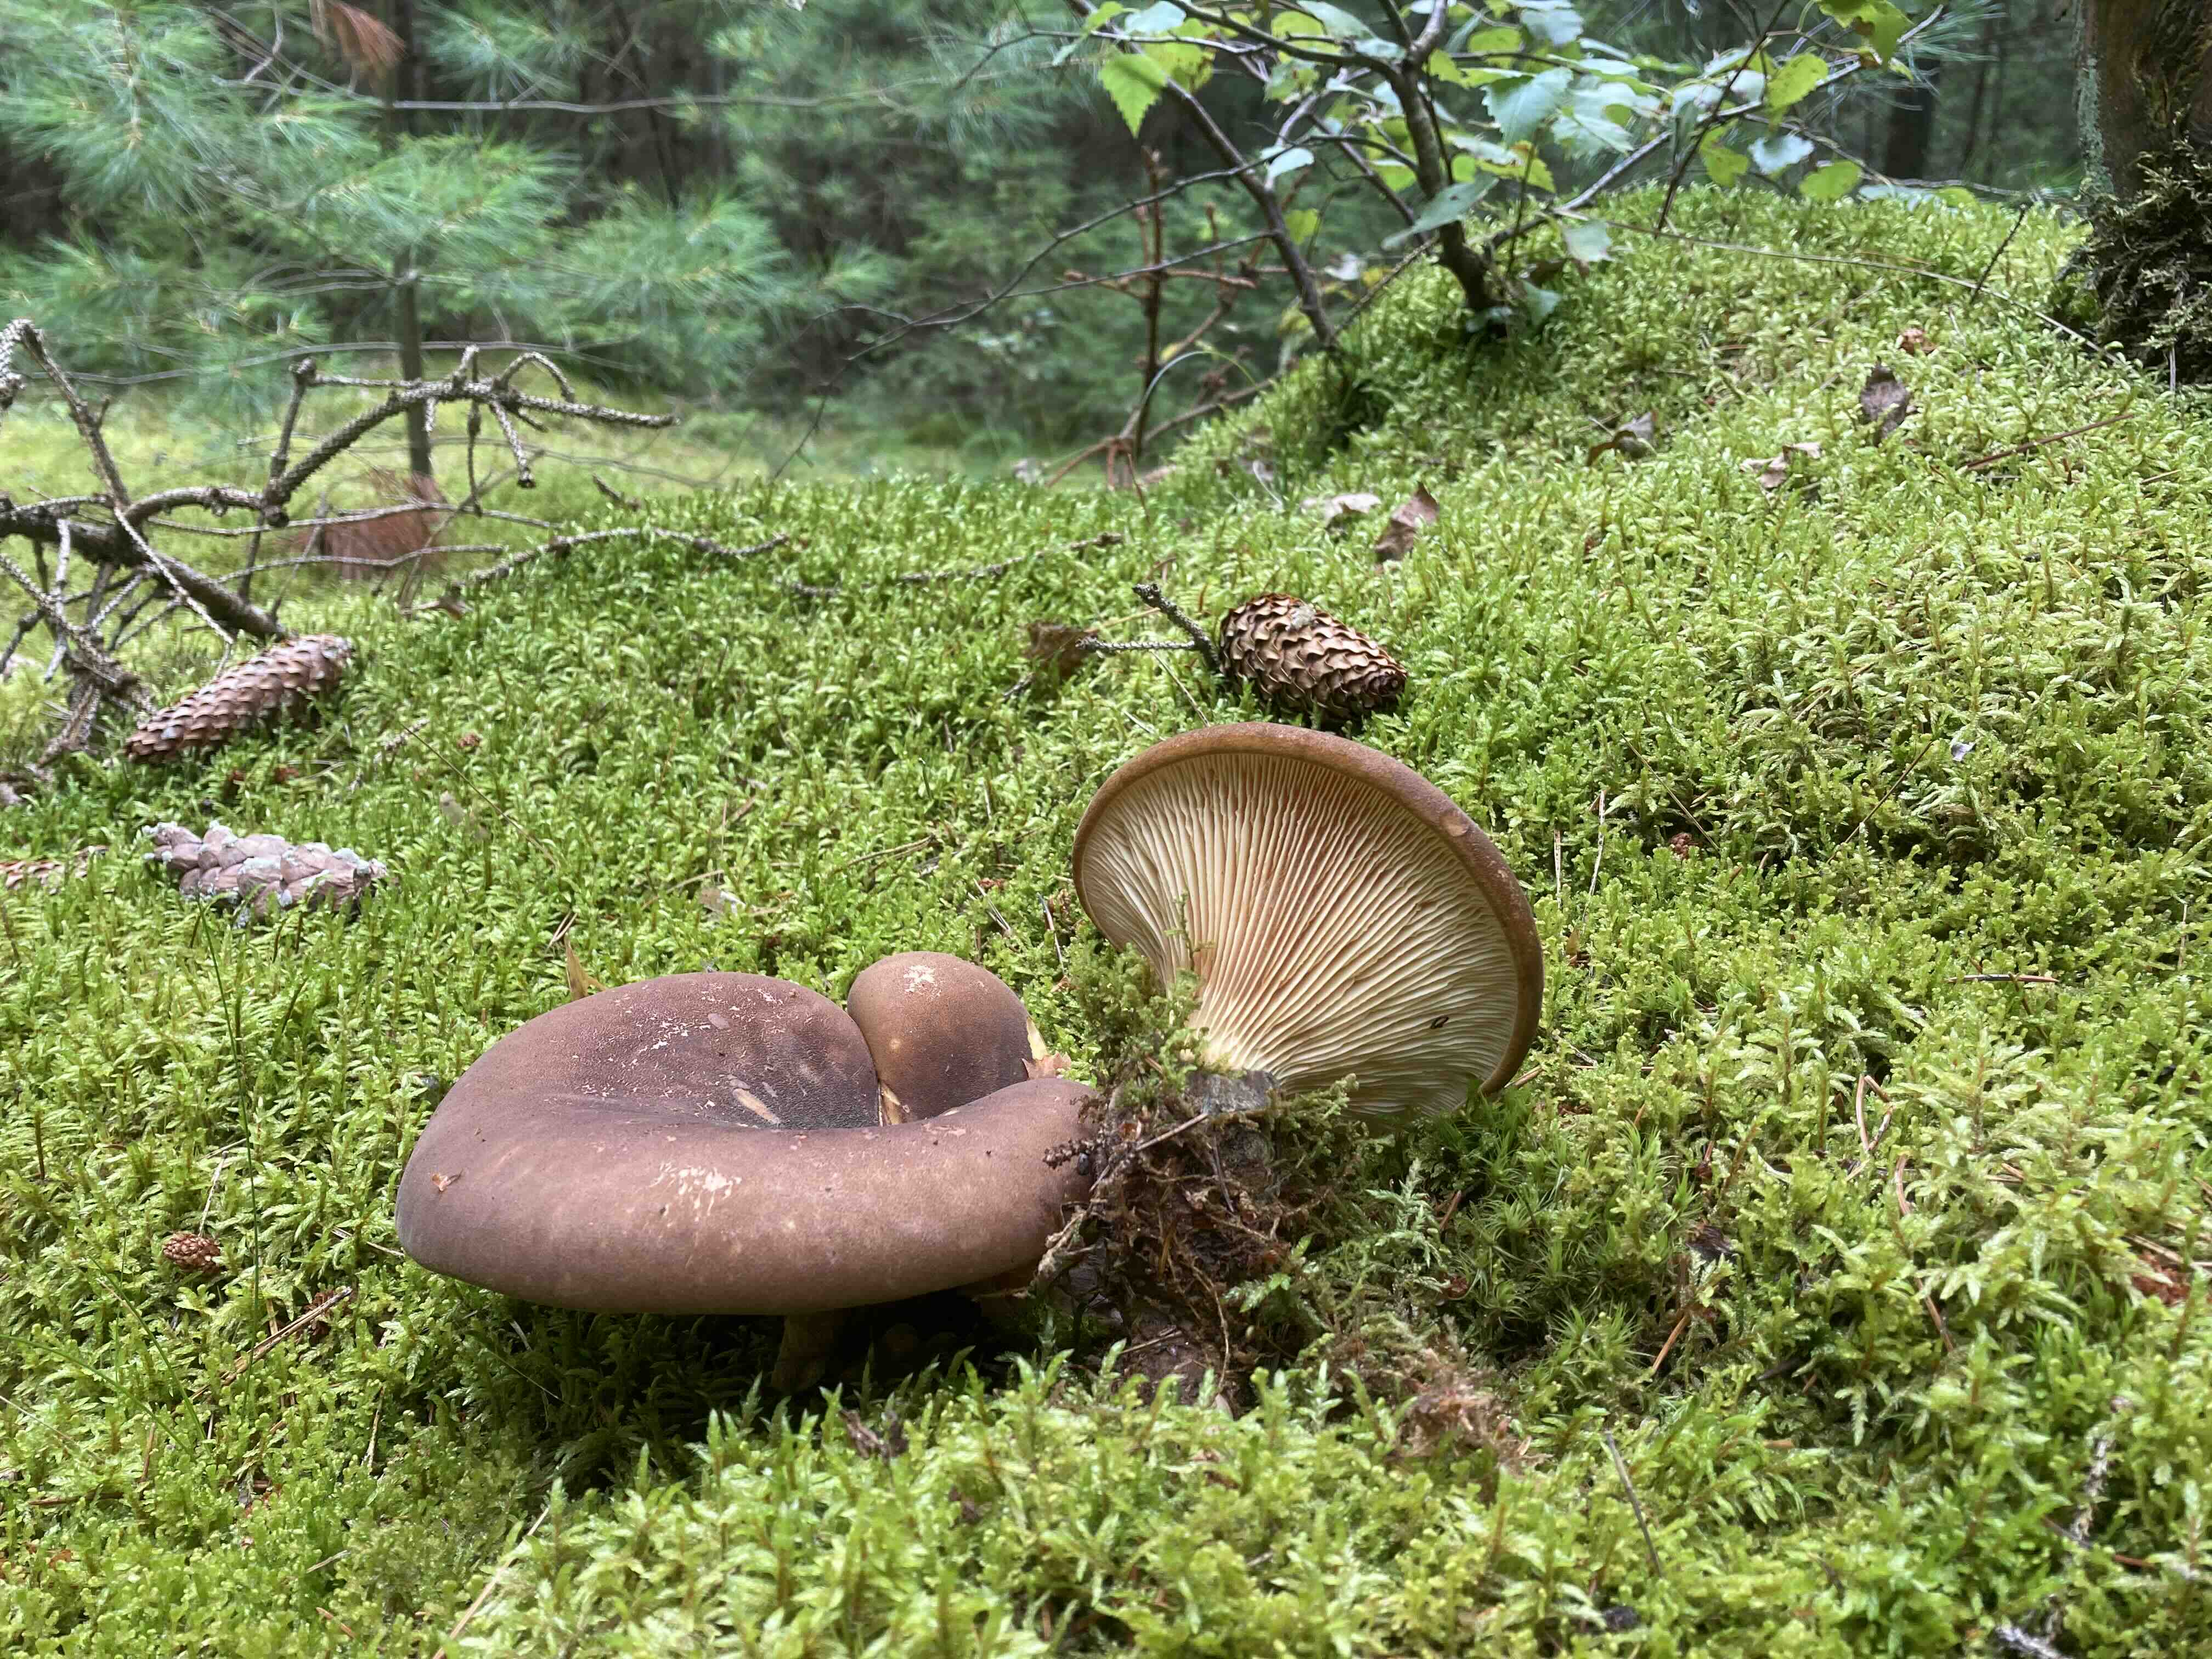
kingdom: Fungi
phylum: Basidiomycota
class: Agaricomycetes
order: Boletales
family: Tapinellaceae
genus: Tapinella
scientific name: Tapinella atrotomentosa
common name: sortfiltet viftesvamp
